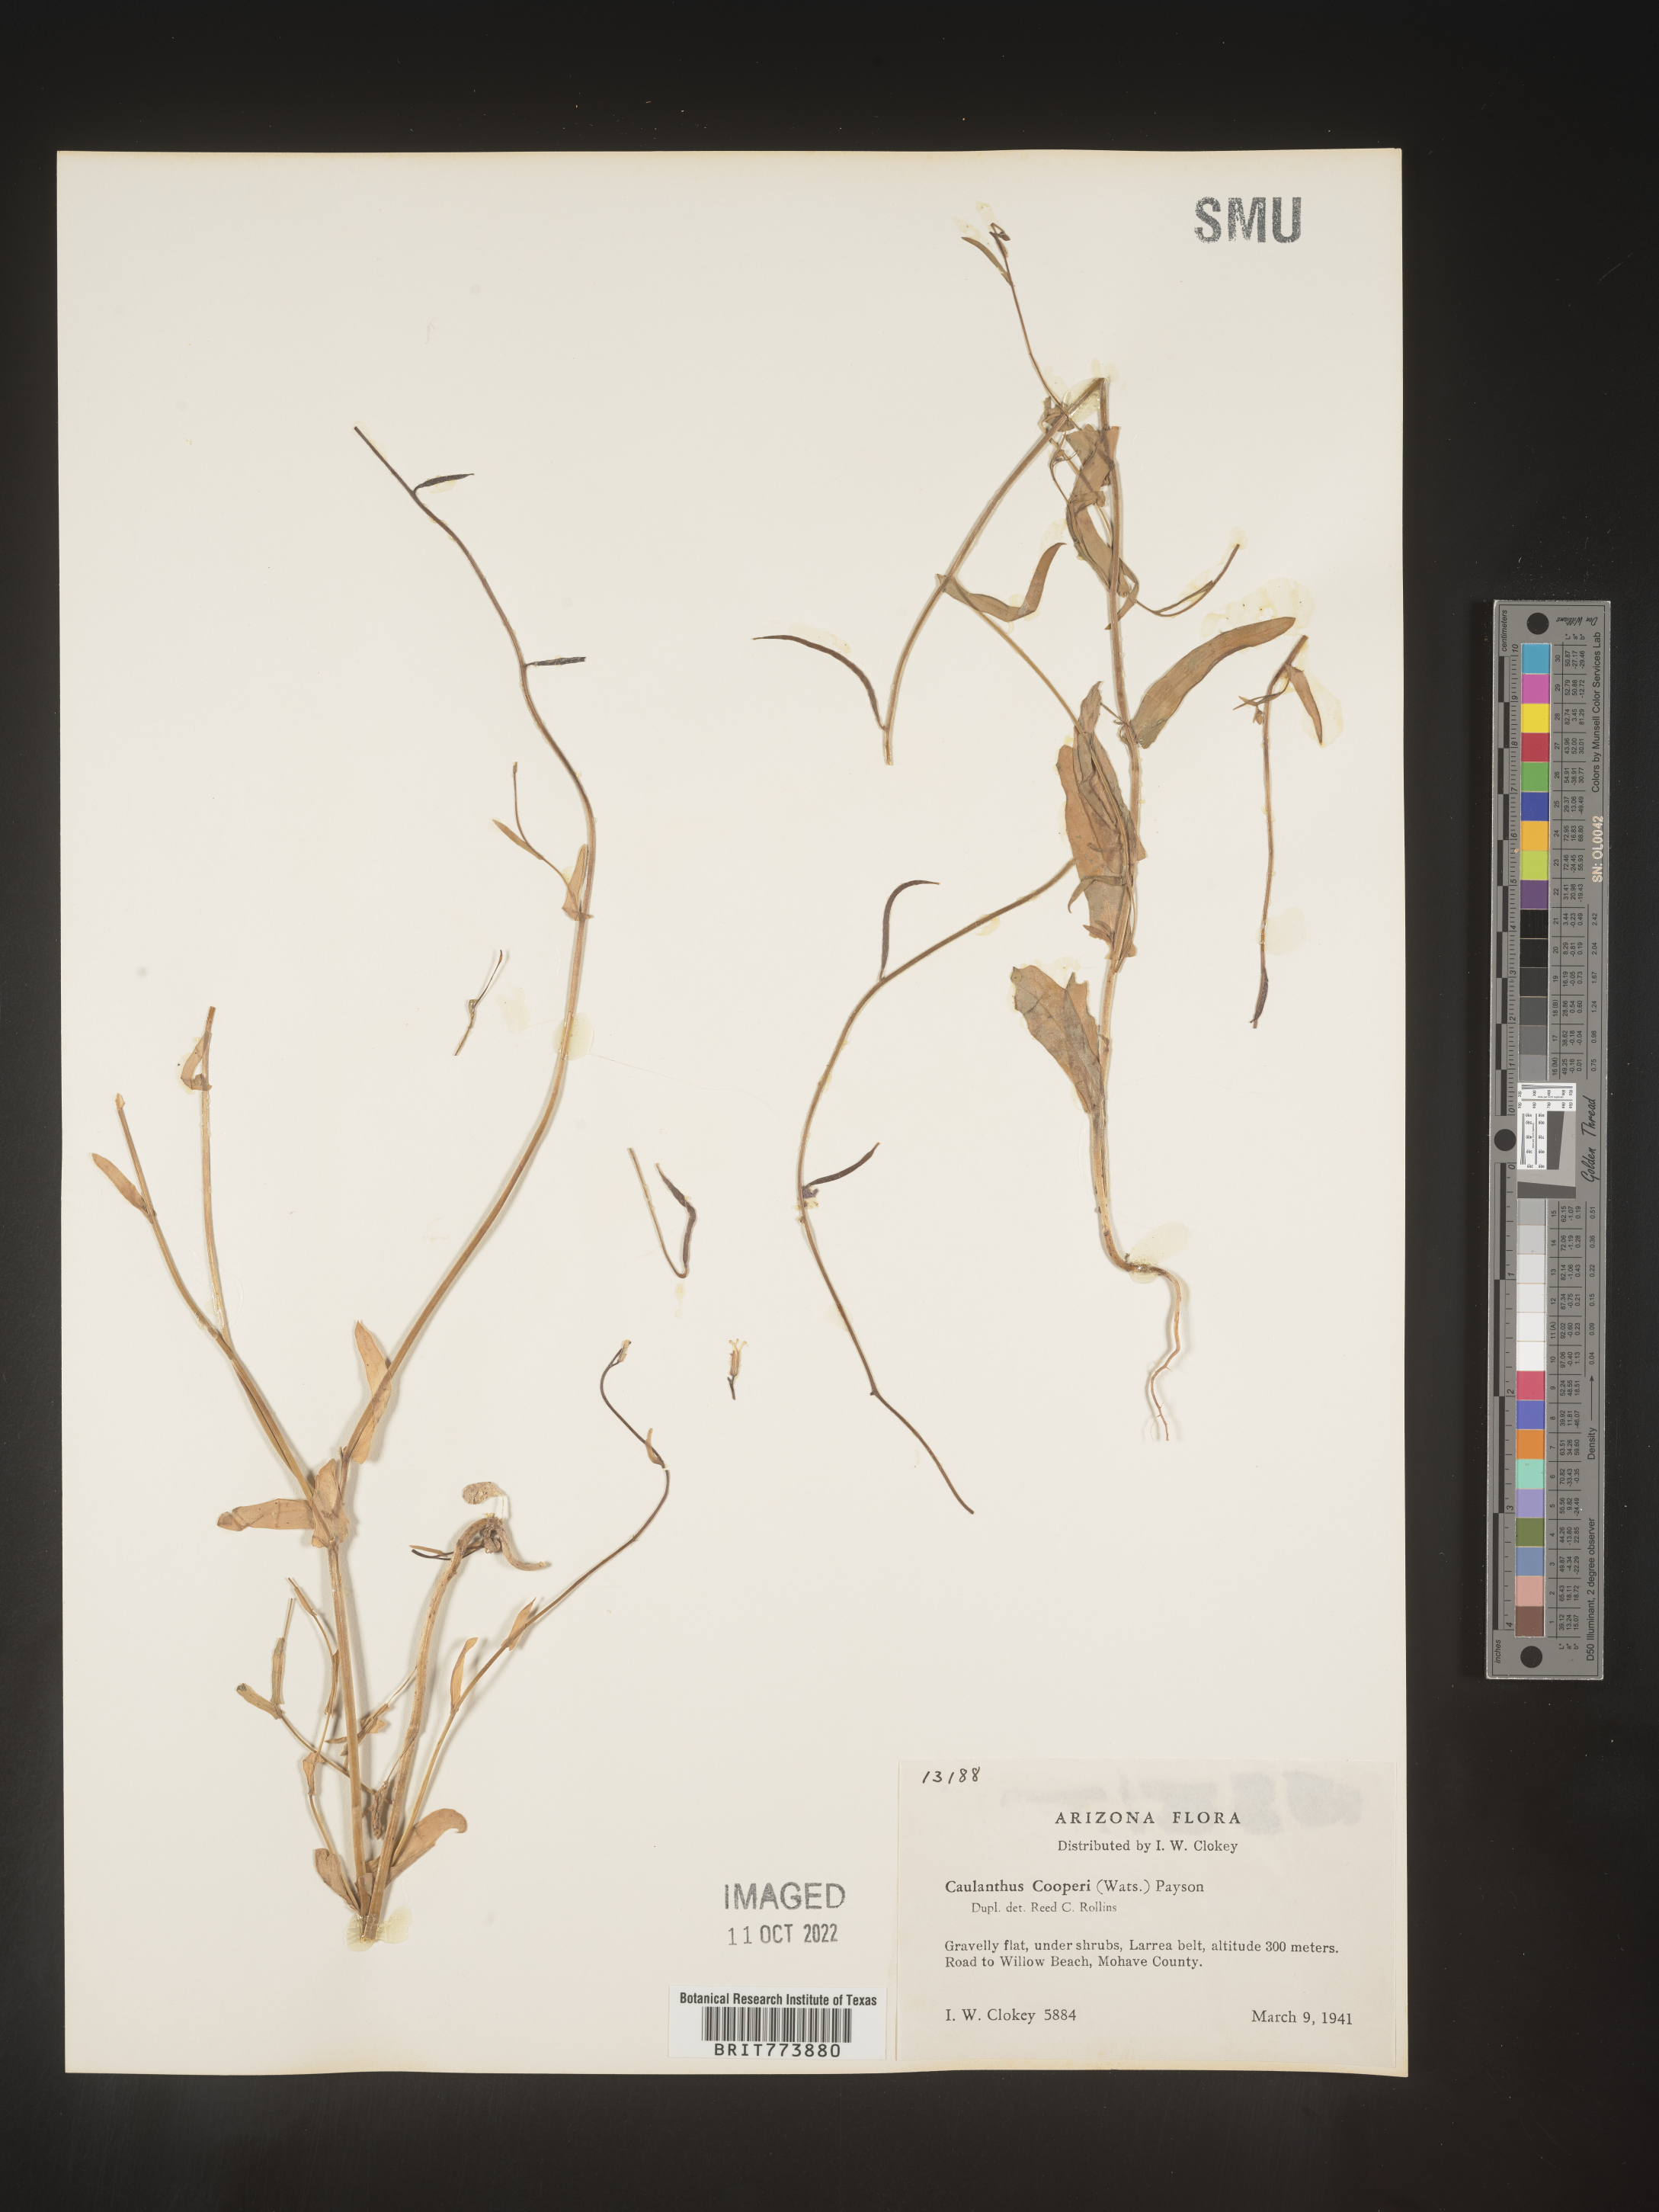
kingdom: Plantae
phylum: Tracheophyta
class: Magnoliopsida
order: Brassicales
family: Brassicaceae
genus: Streptanthus
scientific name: Streptanthus
